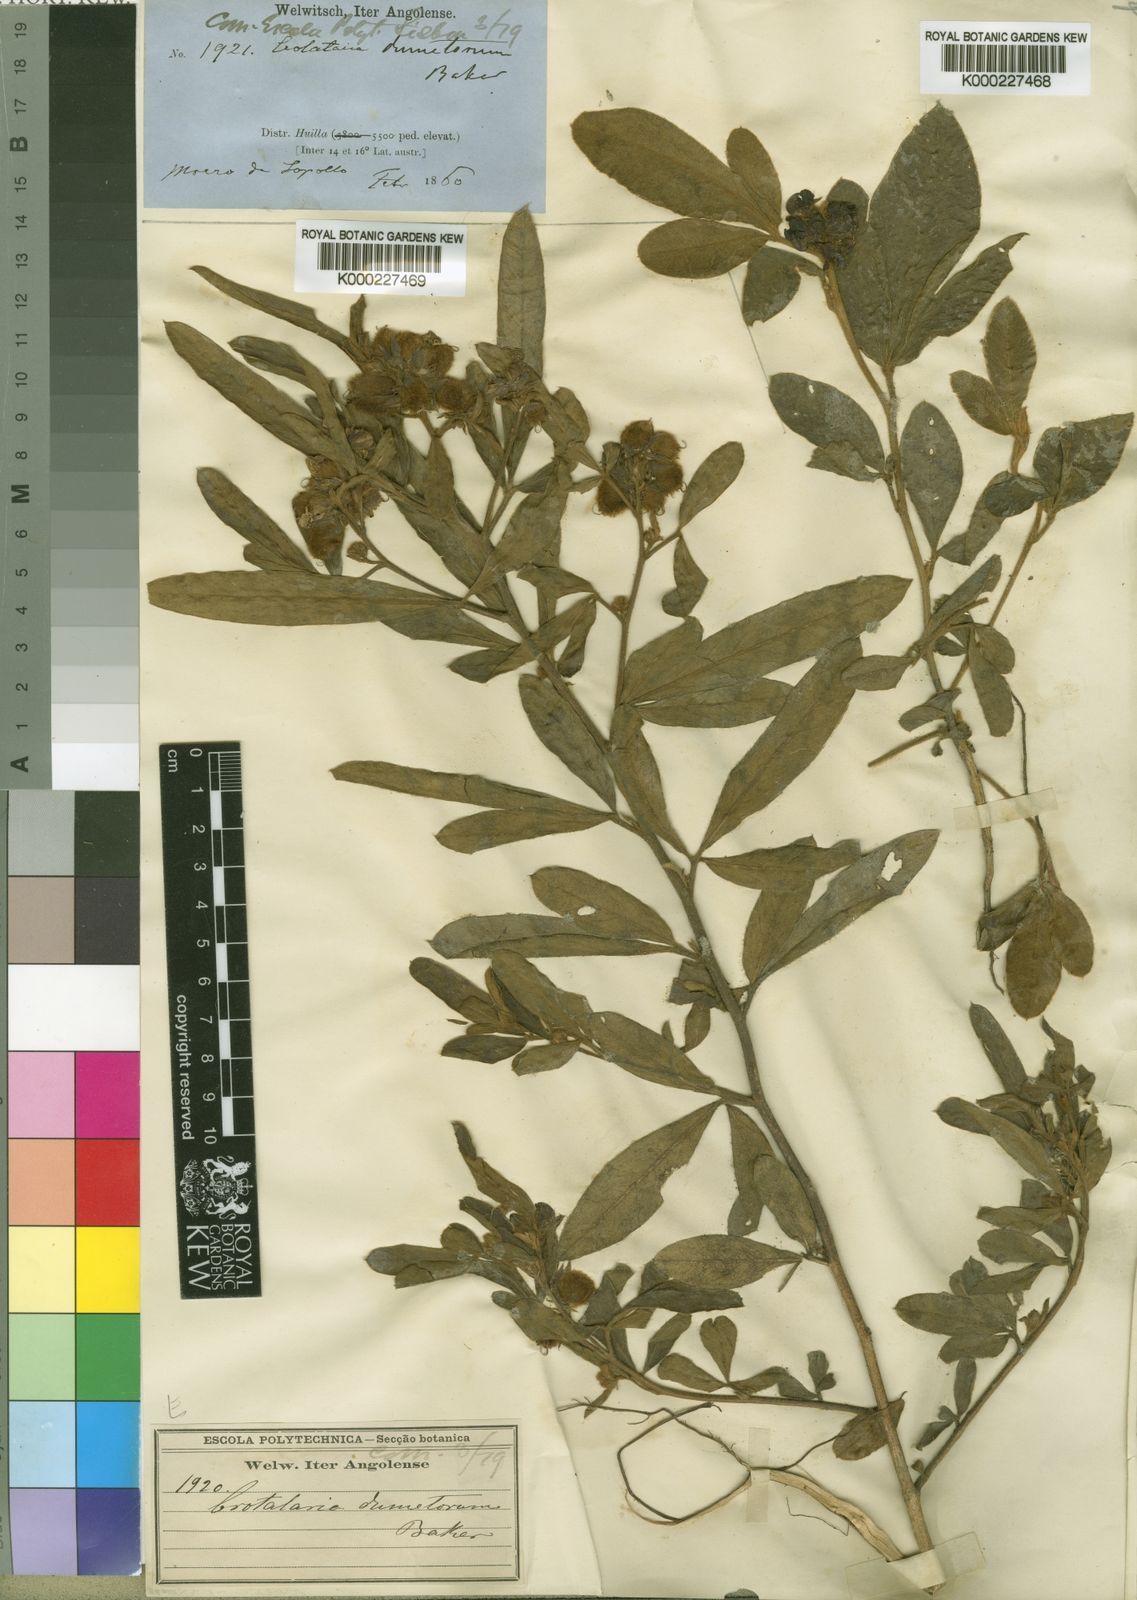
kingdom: Plantae
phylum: Tracheophyta
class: Magnoliopsida
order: Fabales
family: Fabaceae
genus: Crotalaria
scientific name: Crotalaria densicephala
